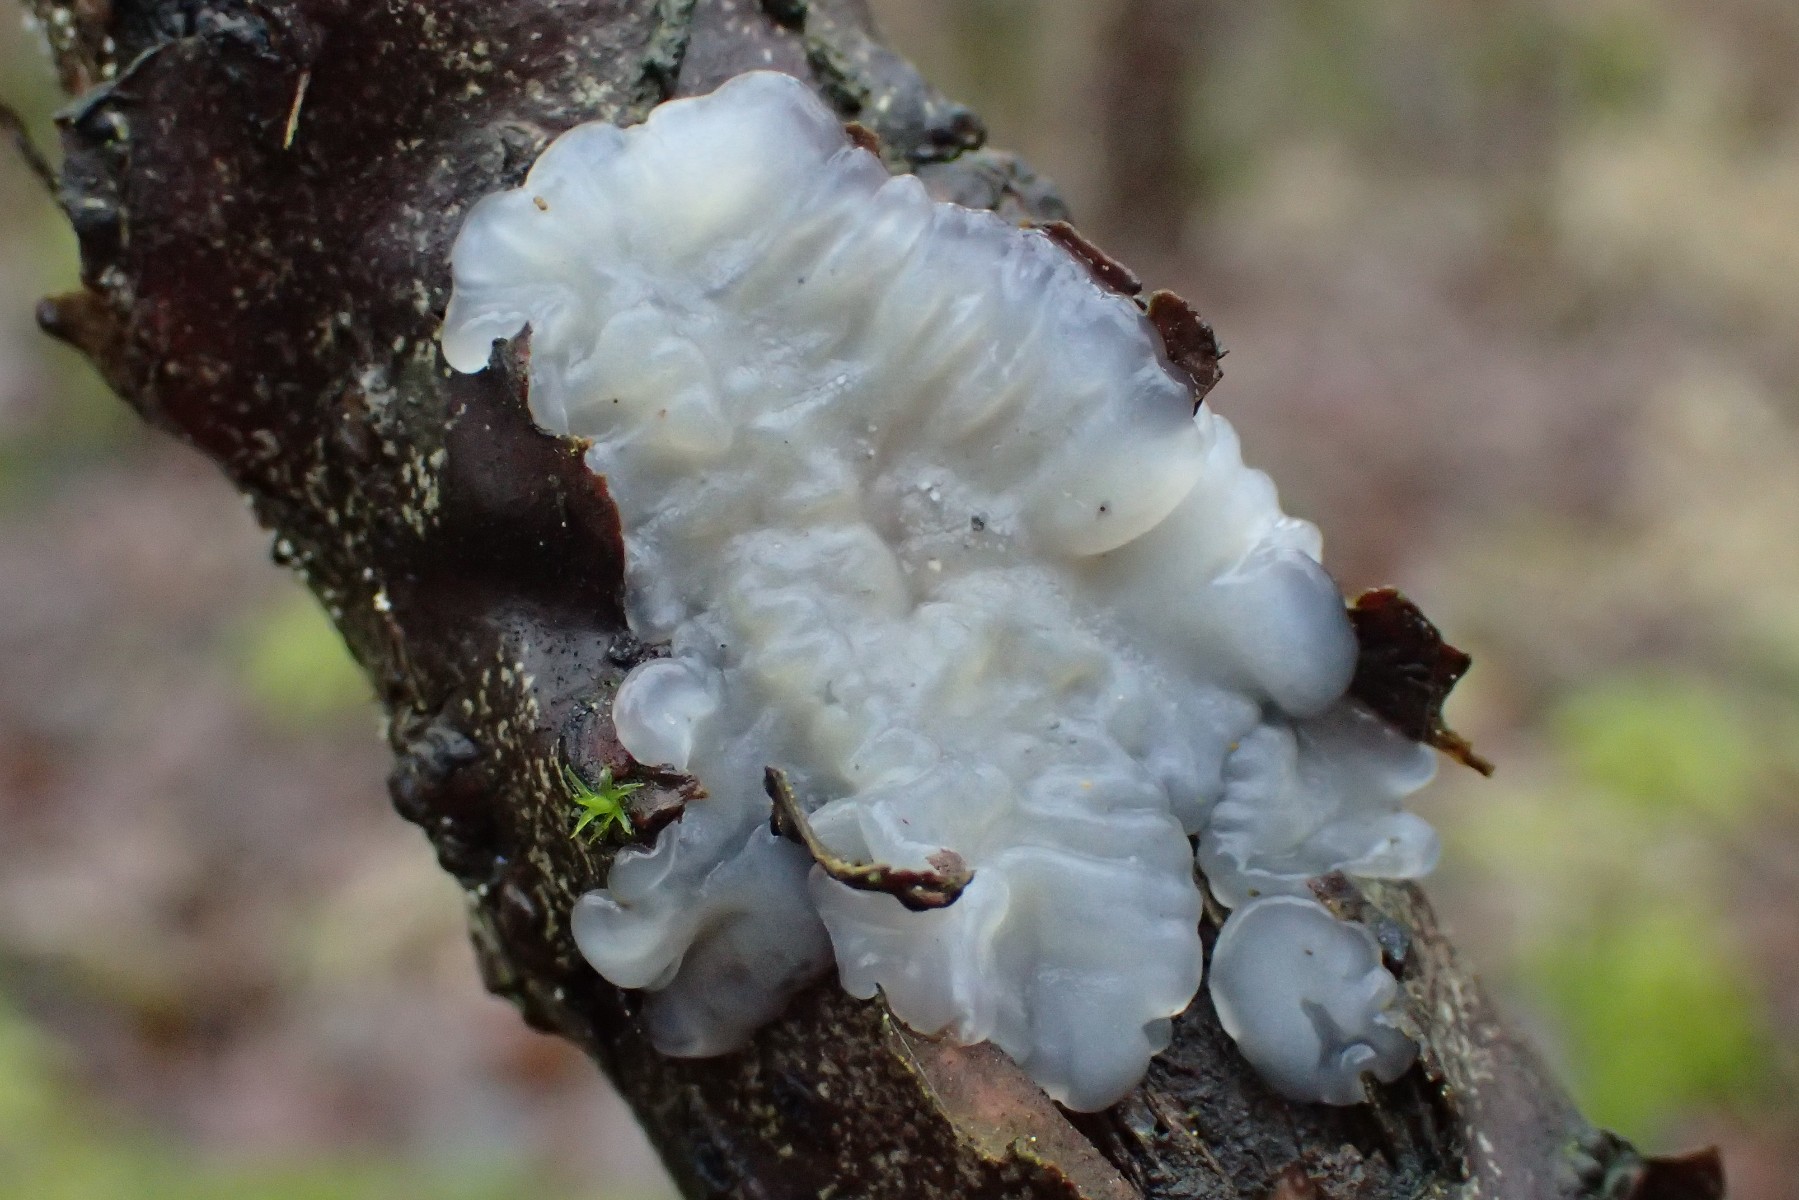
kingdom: Fungi
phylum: Basidiomycota
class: Agaricomycetes
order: Auriculariales
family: Auriculariaceae
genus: Exidia
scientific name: Exidia thuretiana
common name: hvidlig bævretop
